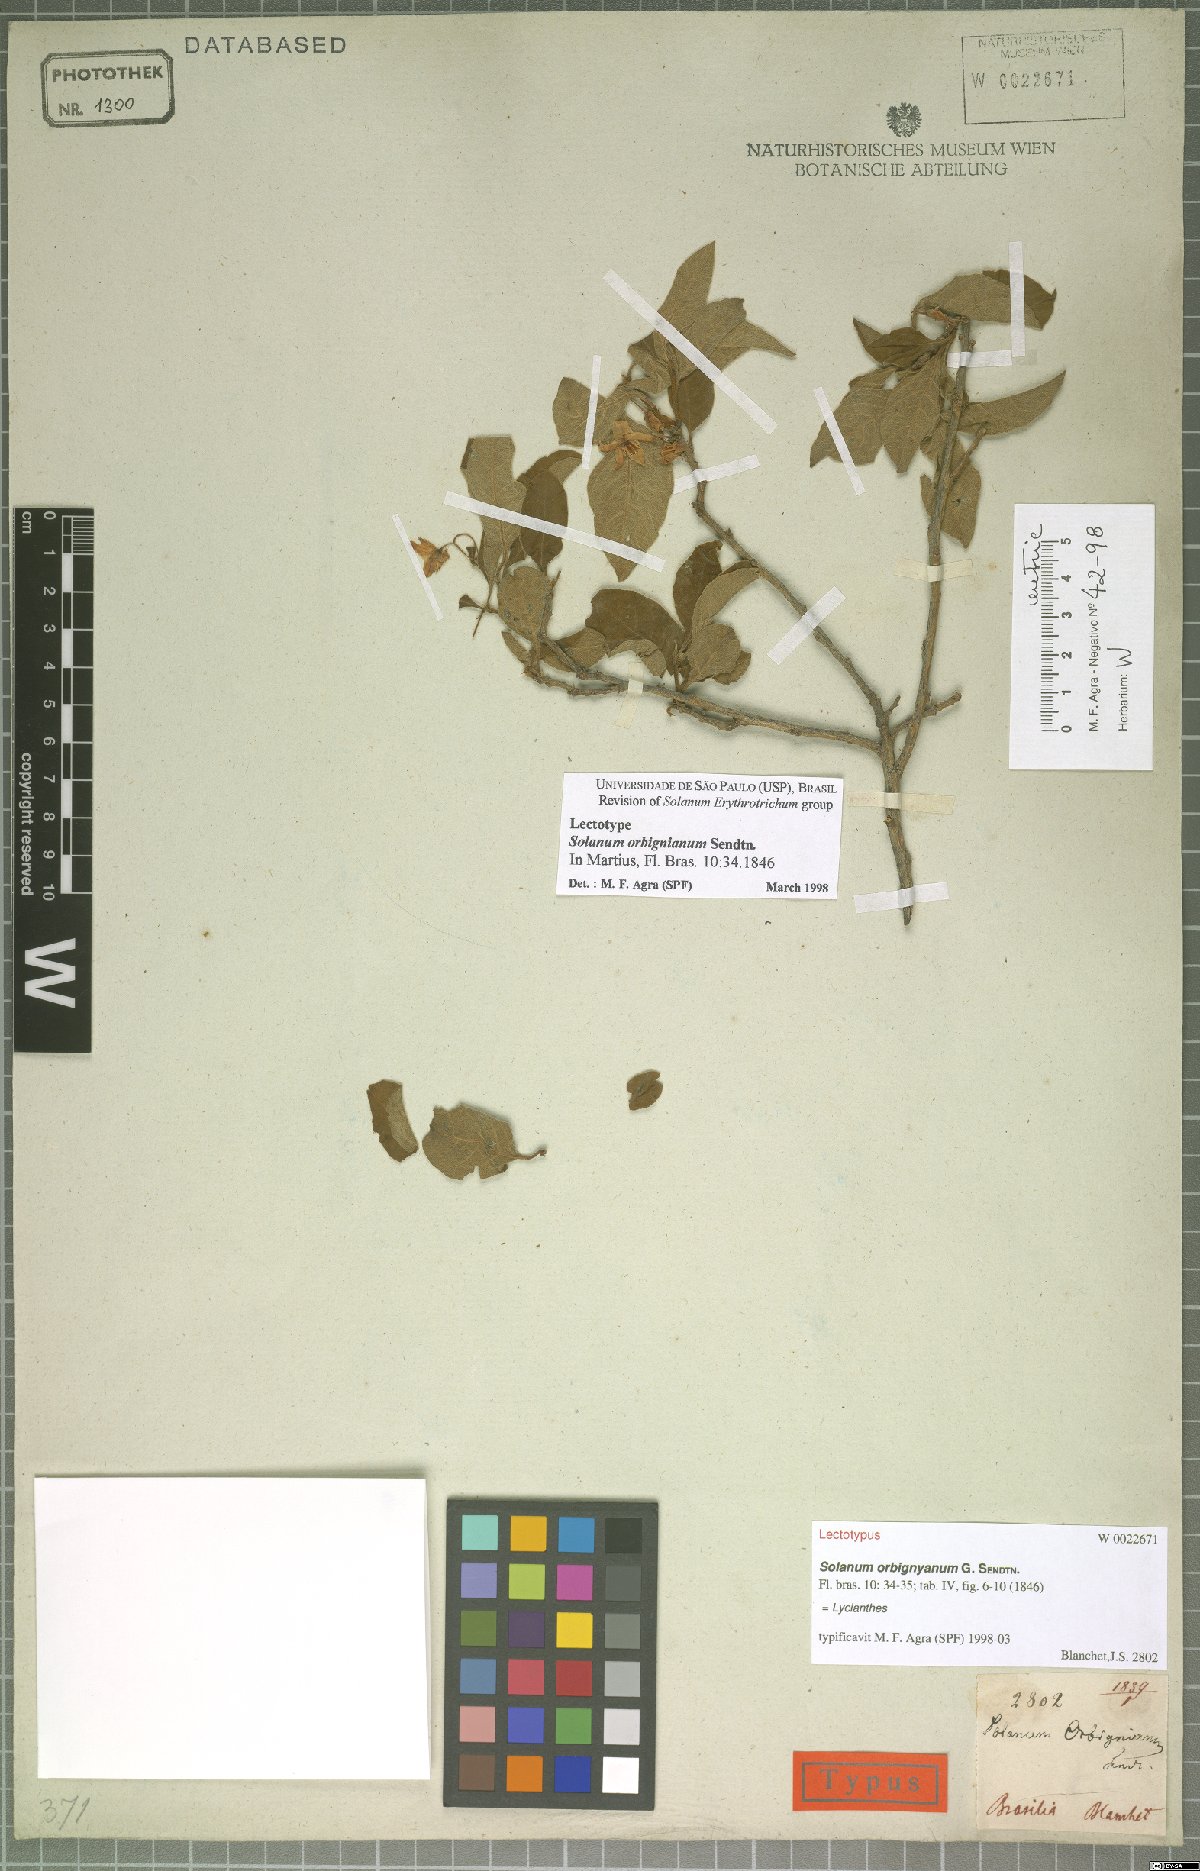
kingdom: Plantae
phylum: Tracheophyta
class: Magnoliopsida
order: Solanales
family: Solanaceae
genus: Solanum
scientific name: Solanum orbignianum
